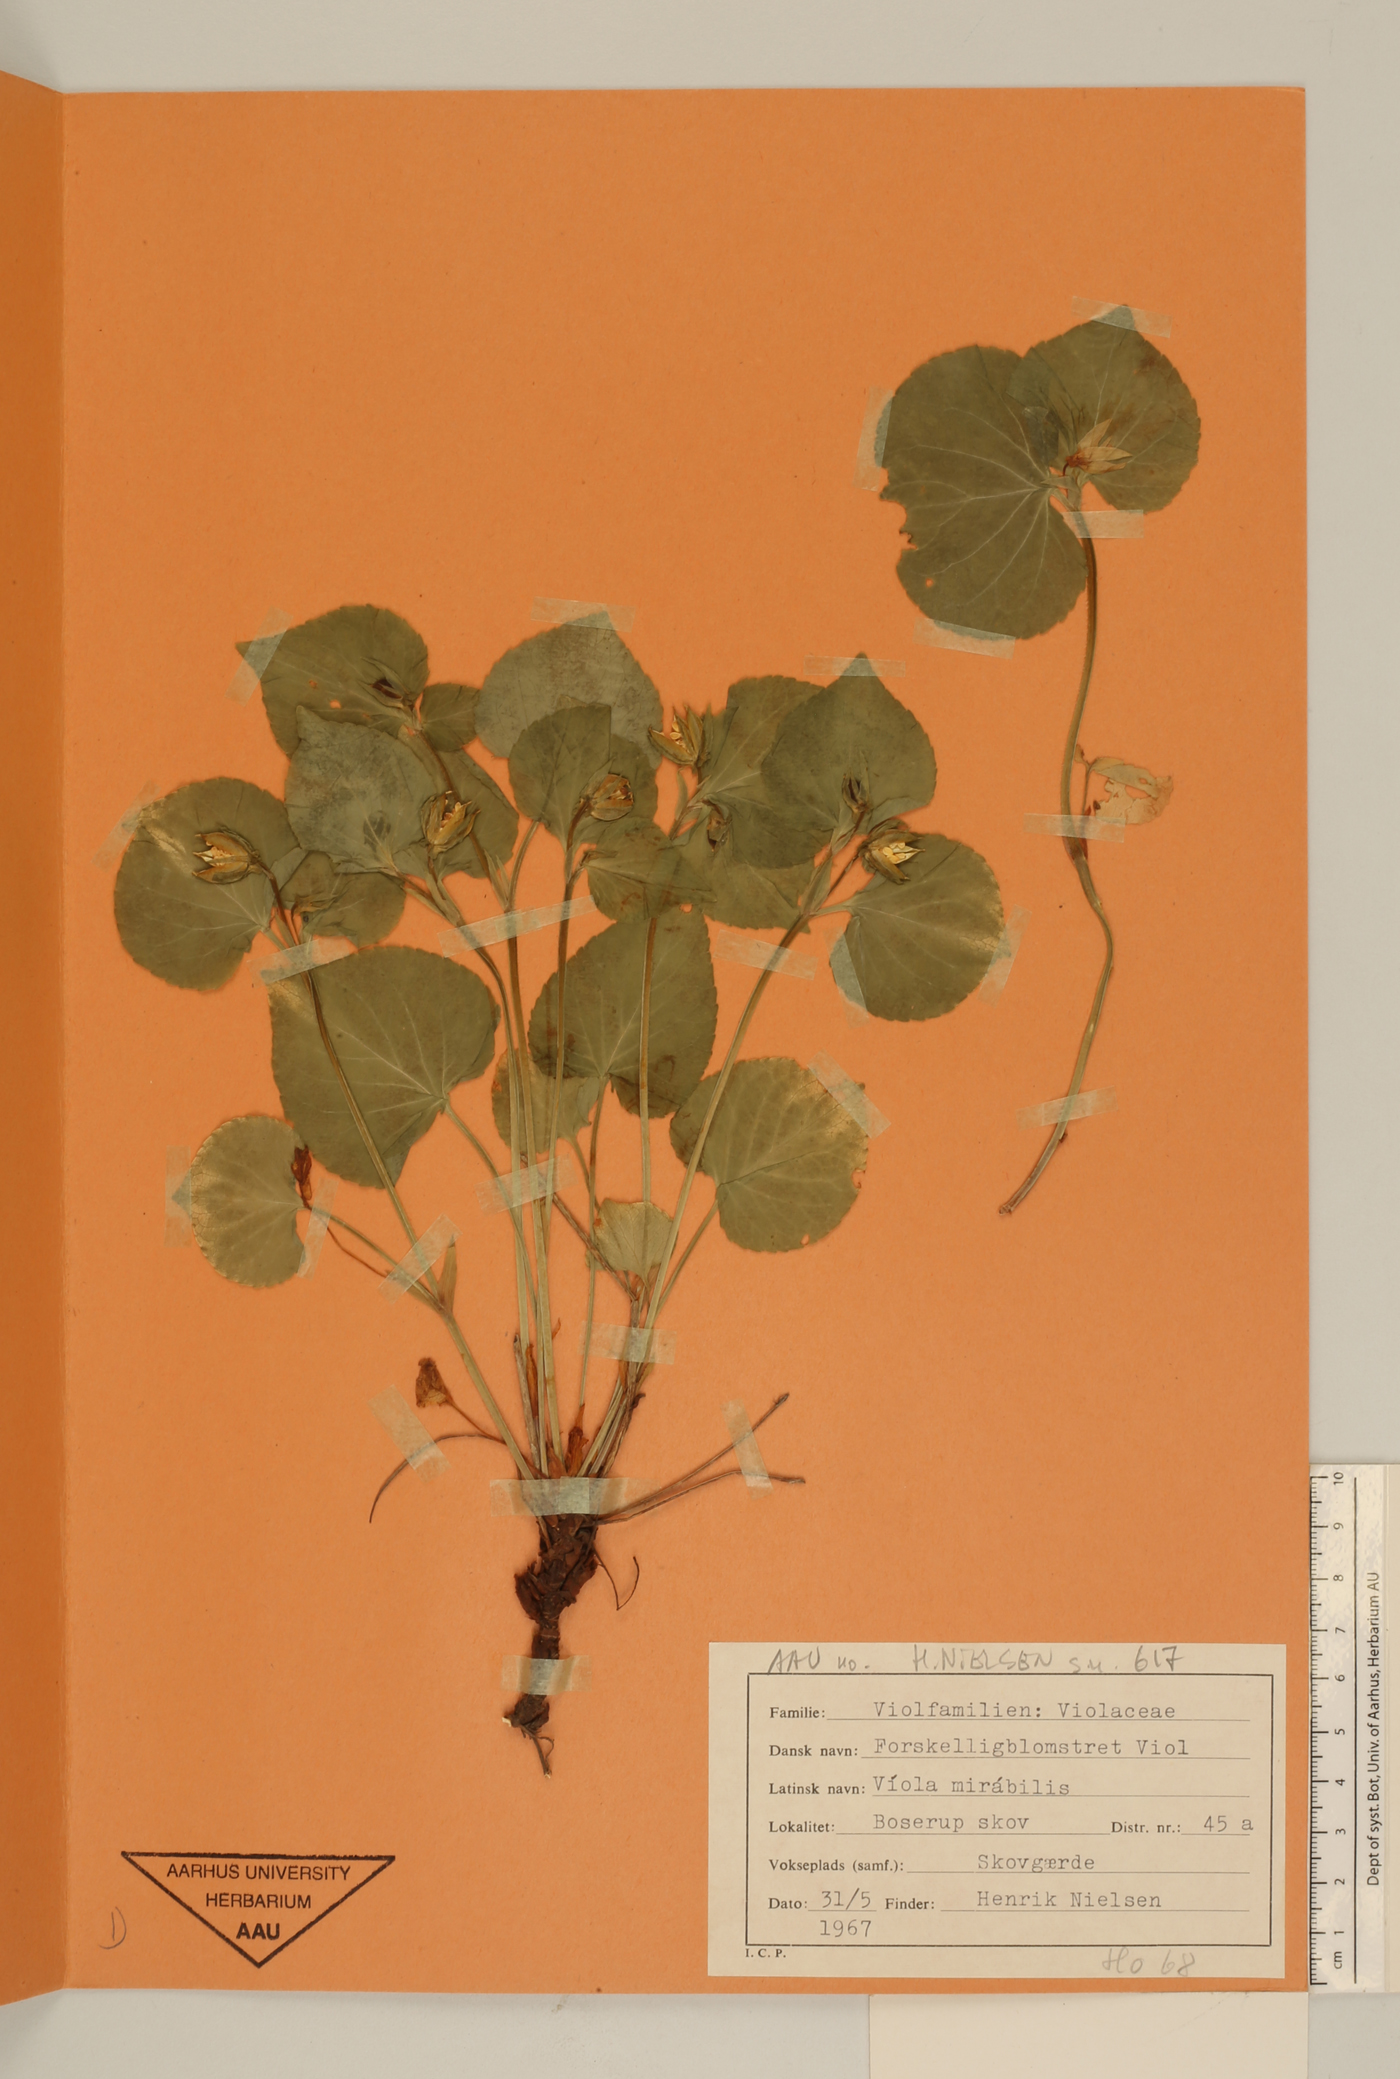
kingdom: Plantae
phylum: Tracheophyta
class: Magnoliopsida
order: Malpighiales
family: Violaceae
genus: Viola
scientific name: Viola mirabilis
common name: Wonder violet
